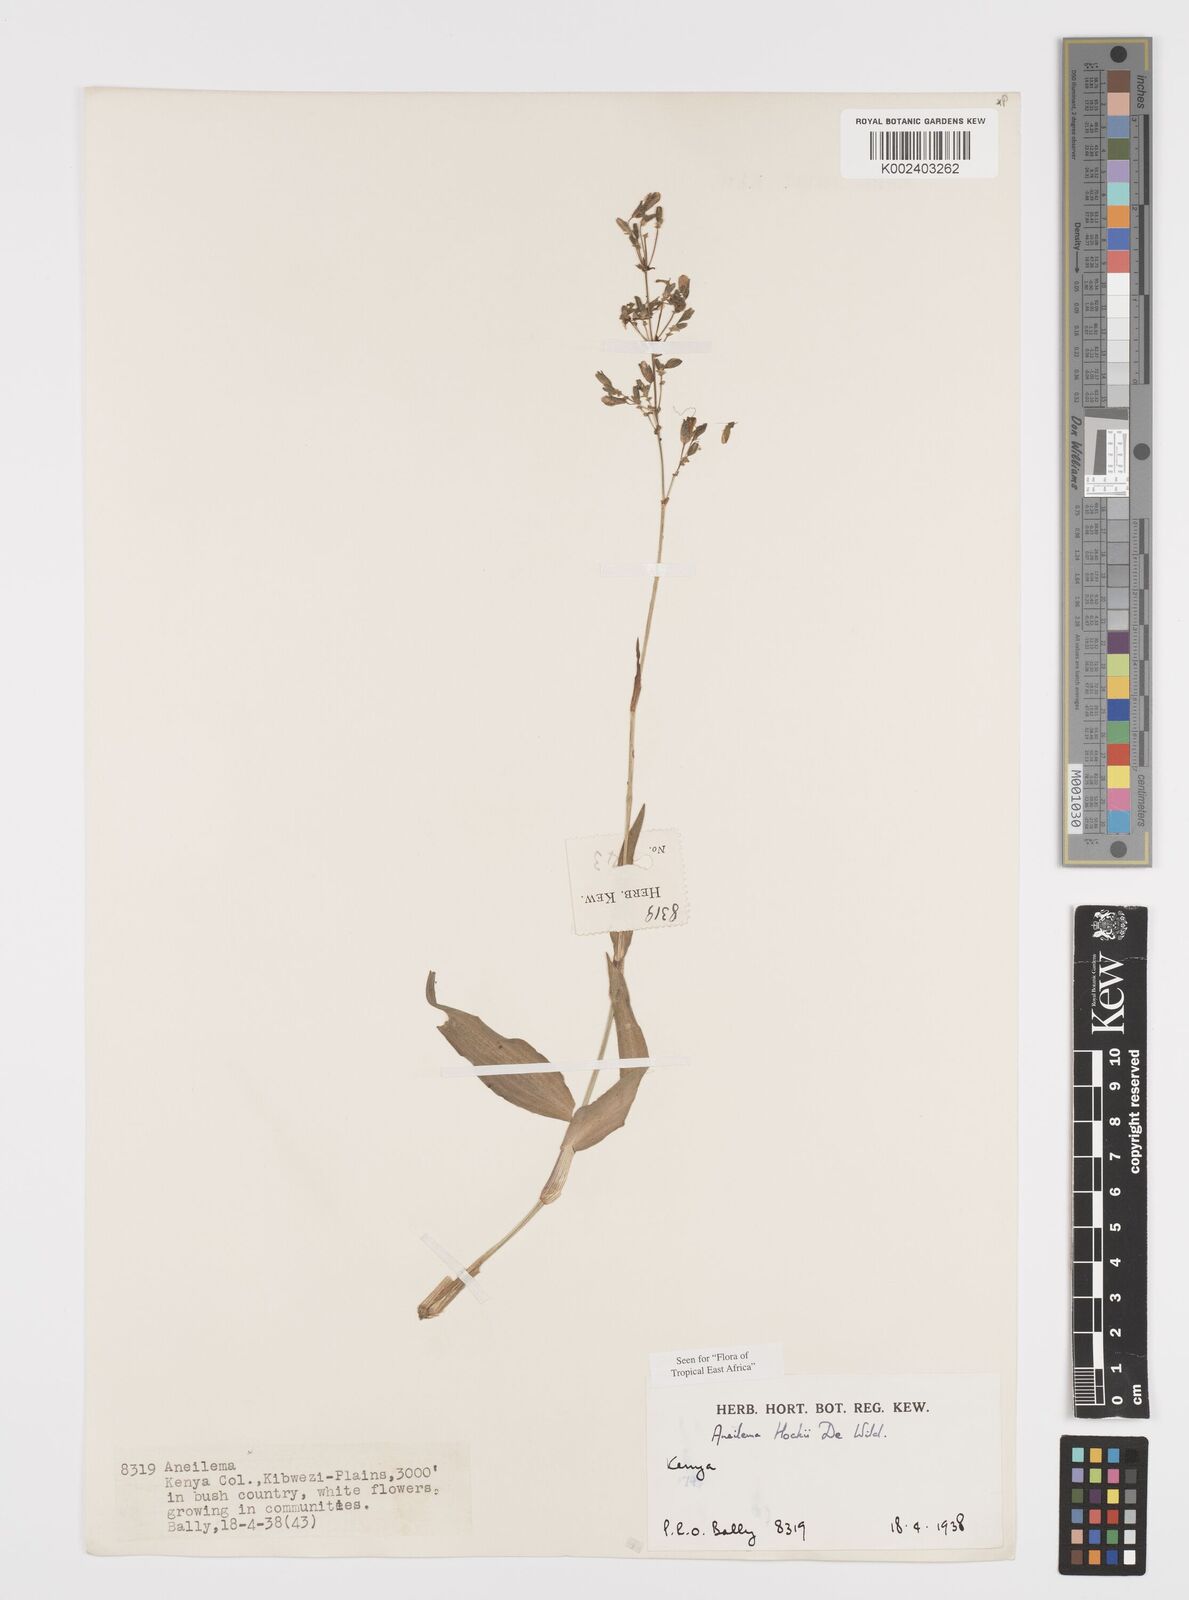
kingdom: Plantae
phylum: Tracheophyta
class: Liliopsida
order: Commelinales
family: Commelinaceae
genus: Aneilema
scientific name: Aneilema hockii
